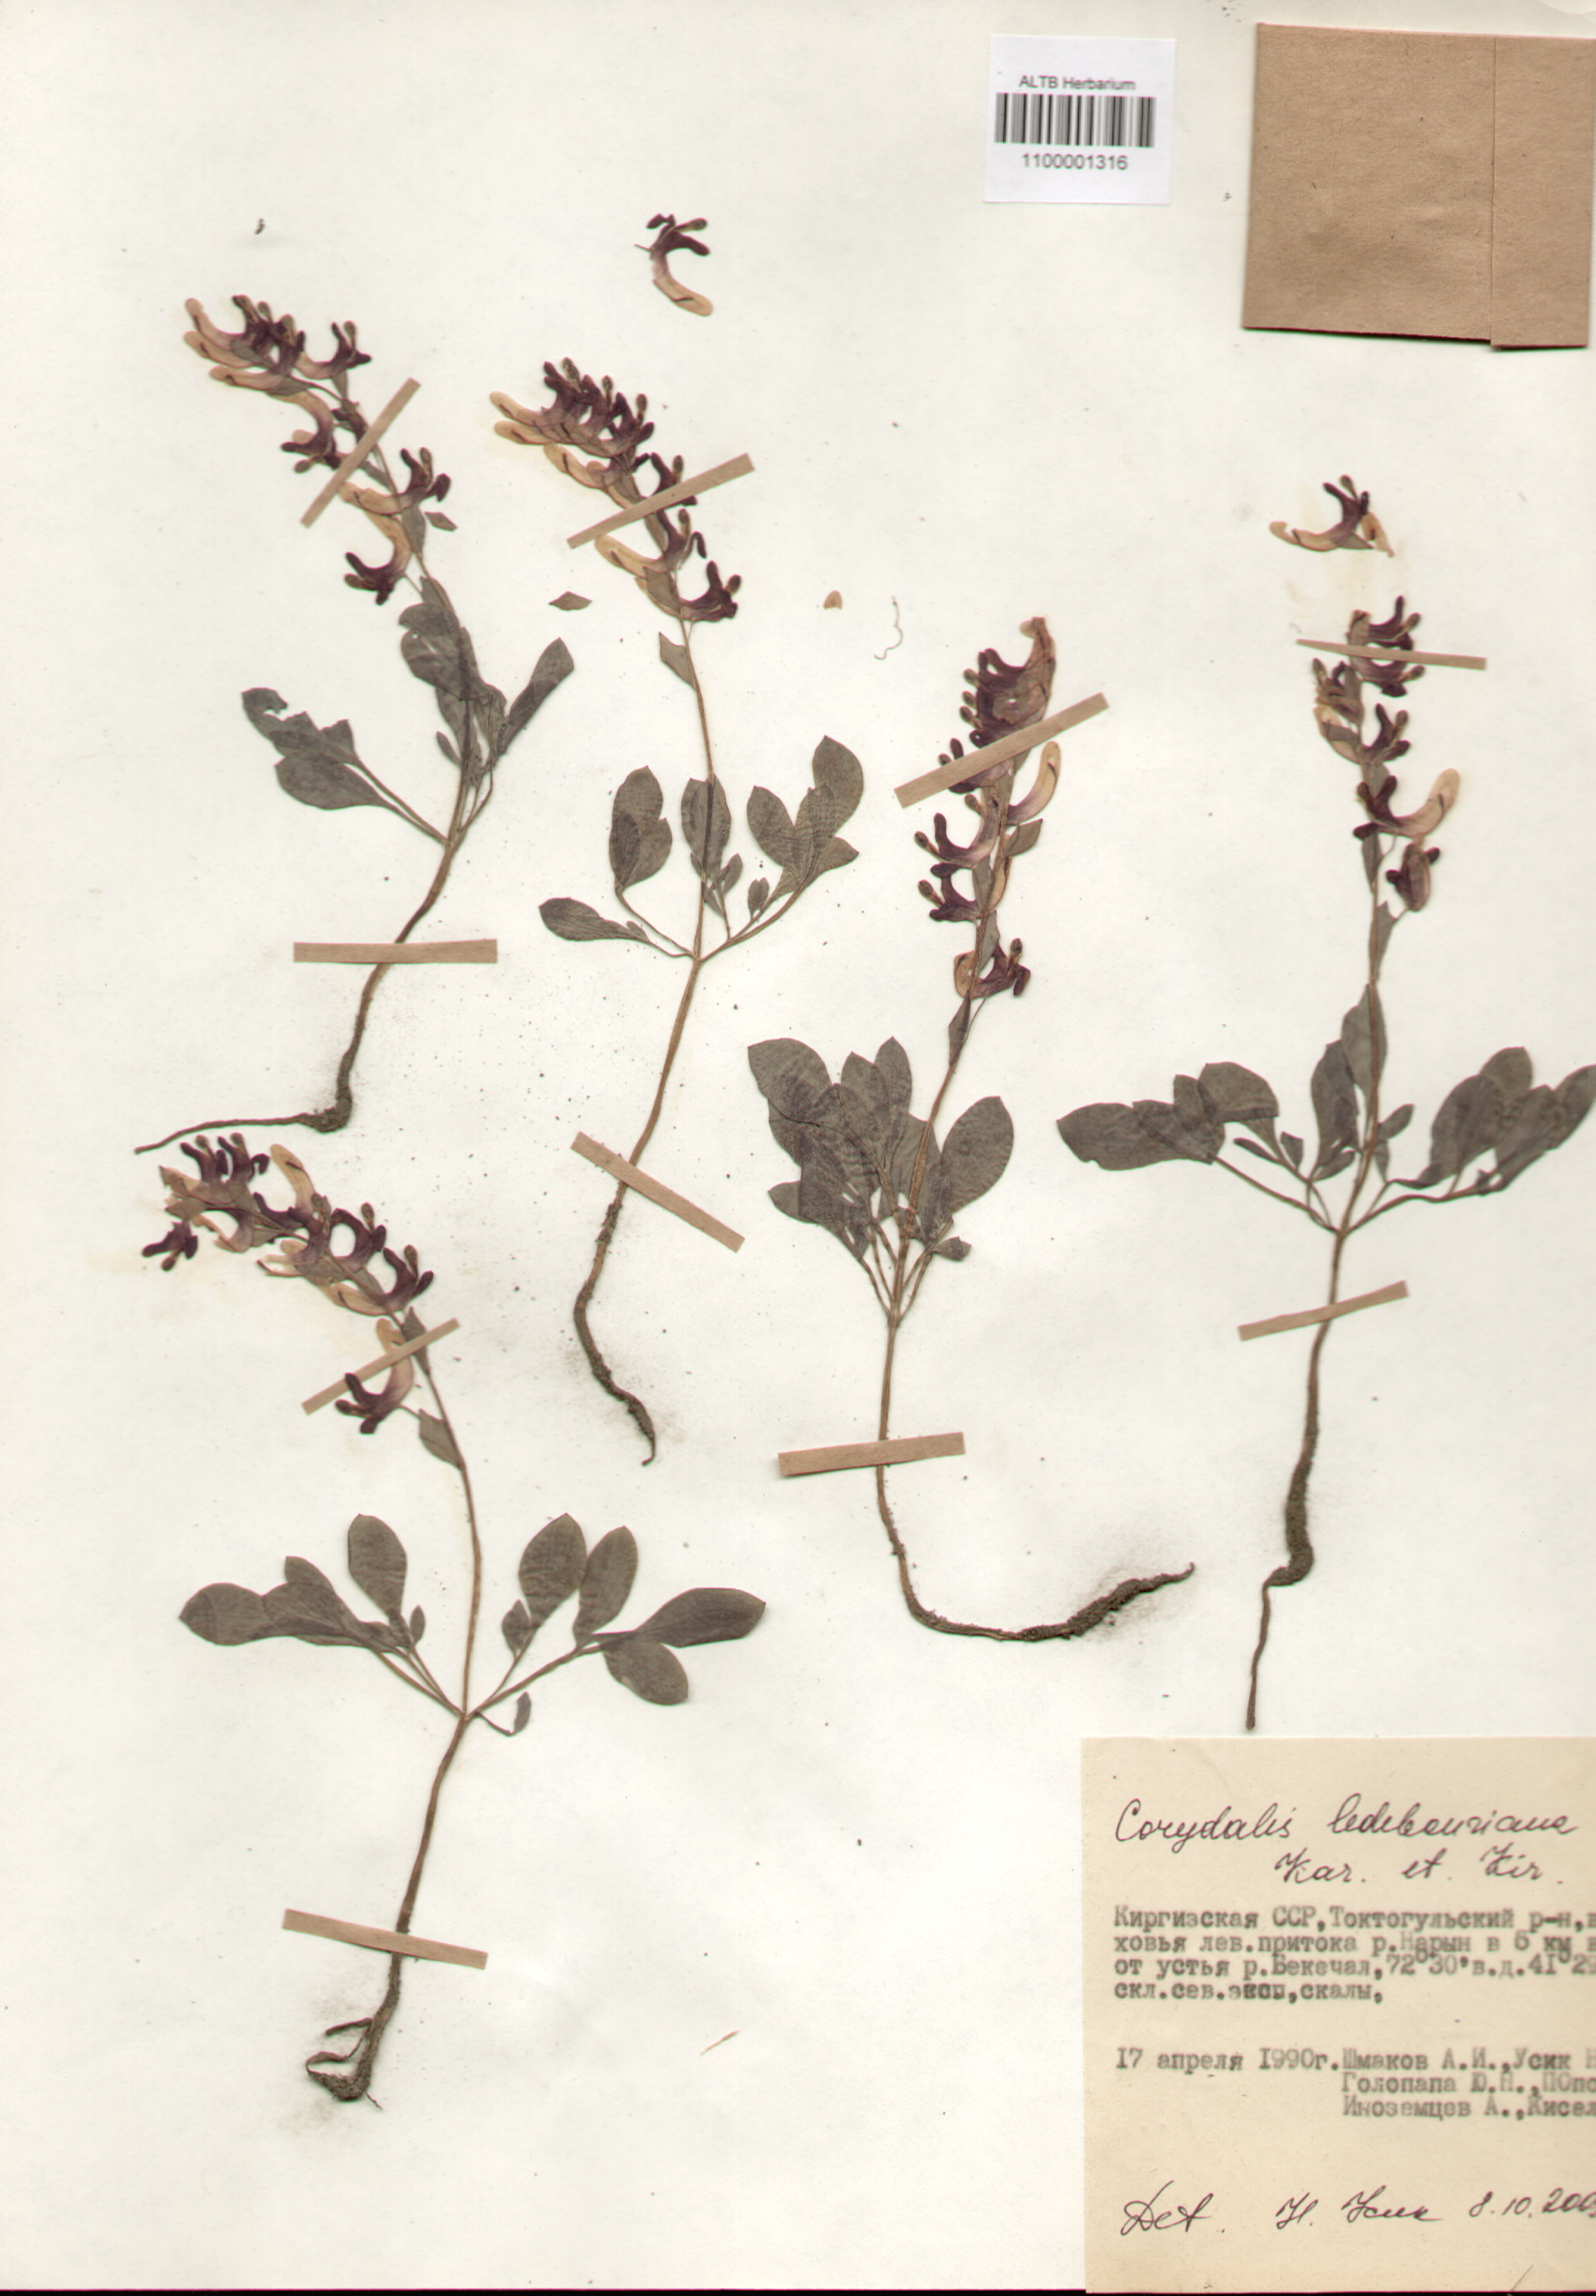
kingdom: Plantae
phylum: Tracheophyta
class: Magnoliopsida
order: Ranunculales
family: Papaveraceae
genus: Corydalis
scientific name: Corydalis ledebouriana
